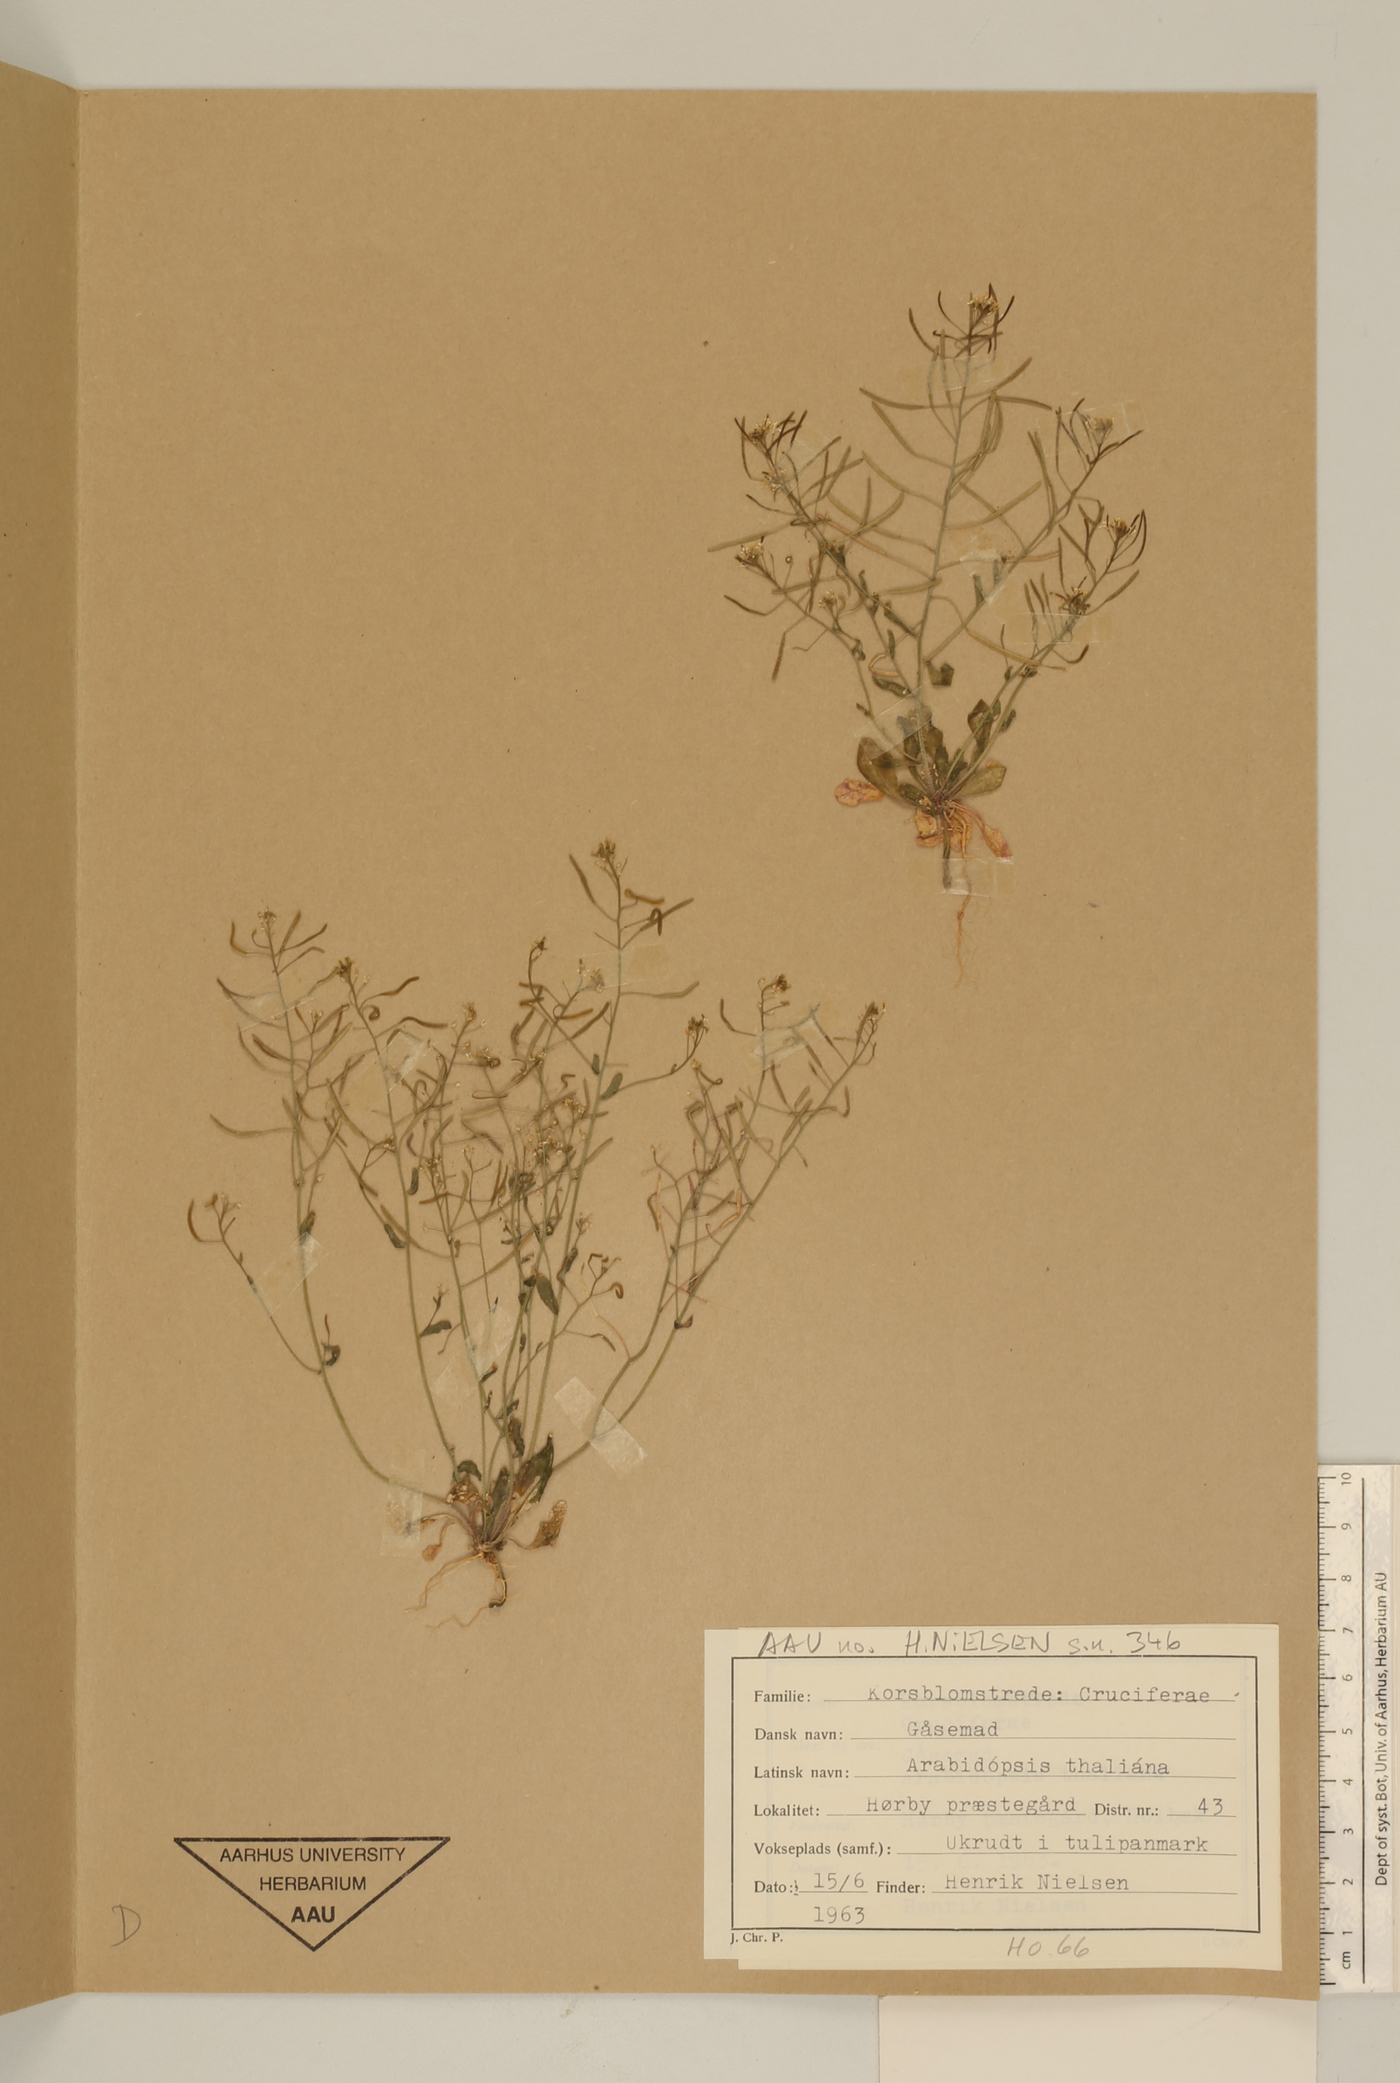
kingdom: Plantae
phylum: Tracheophyta
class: Magnoliopsida
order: Brassicales
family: Brassicaceae
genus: Arabidopsis
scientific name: Arabidopsis thaliana
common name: Thale cress
